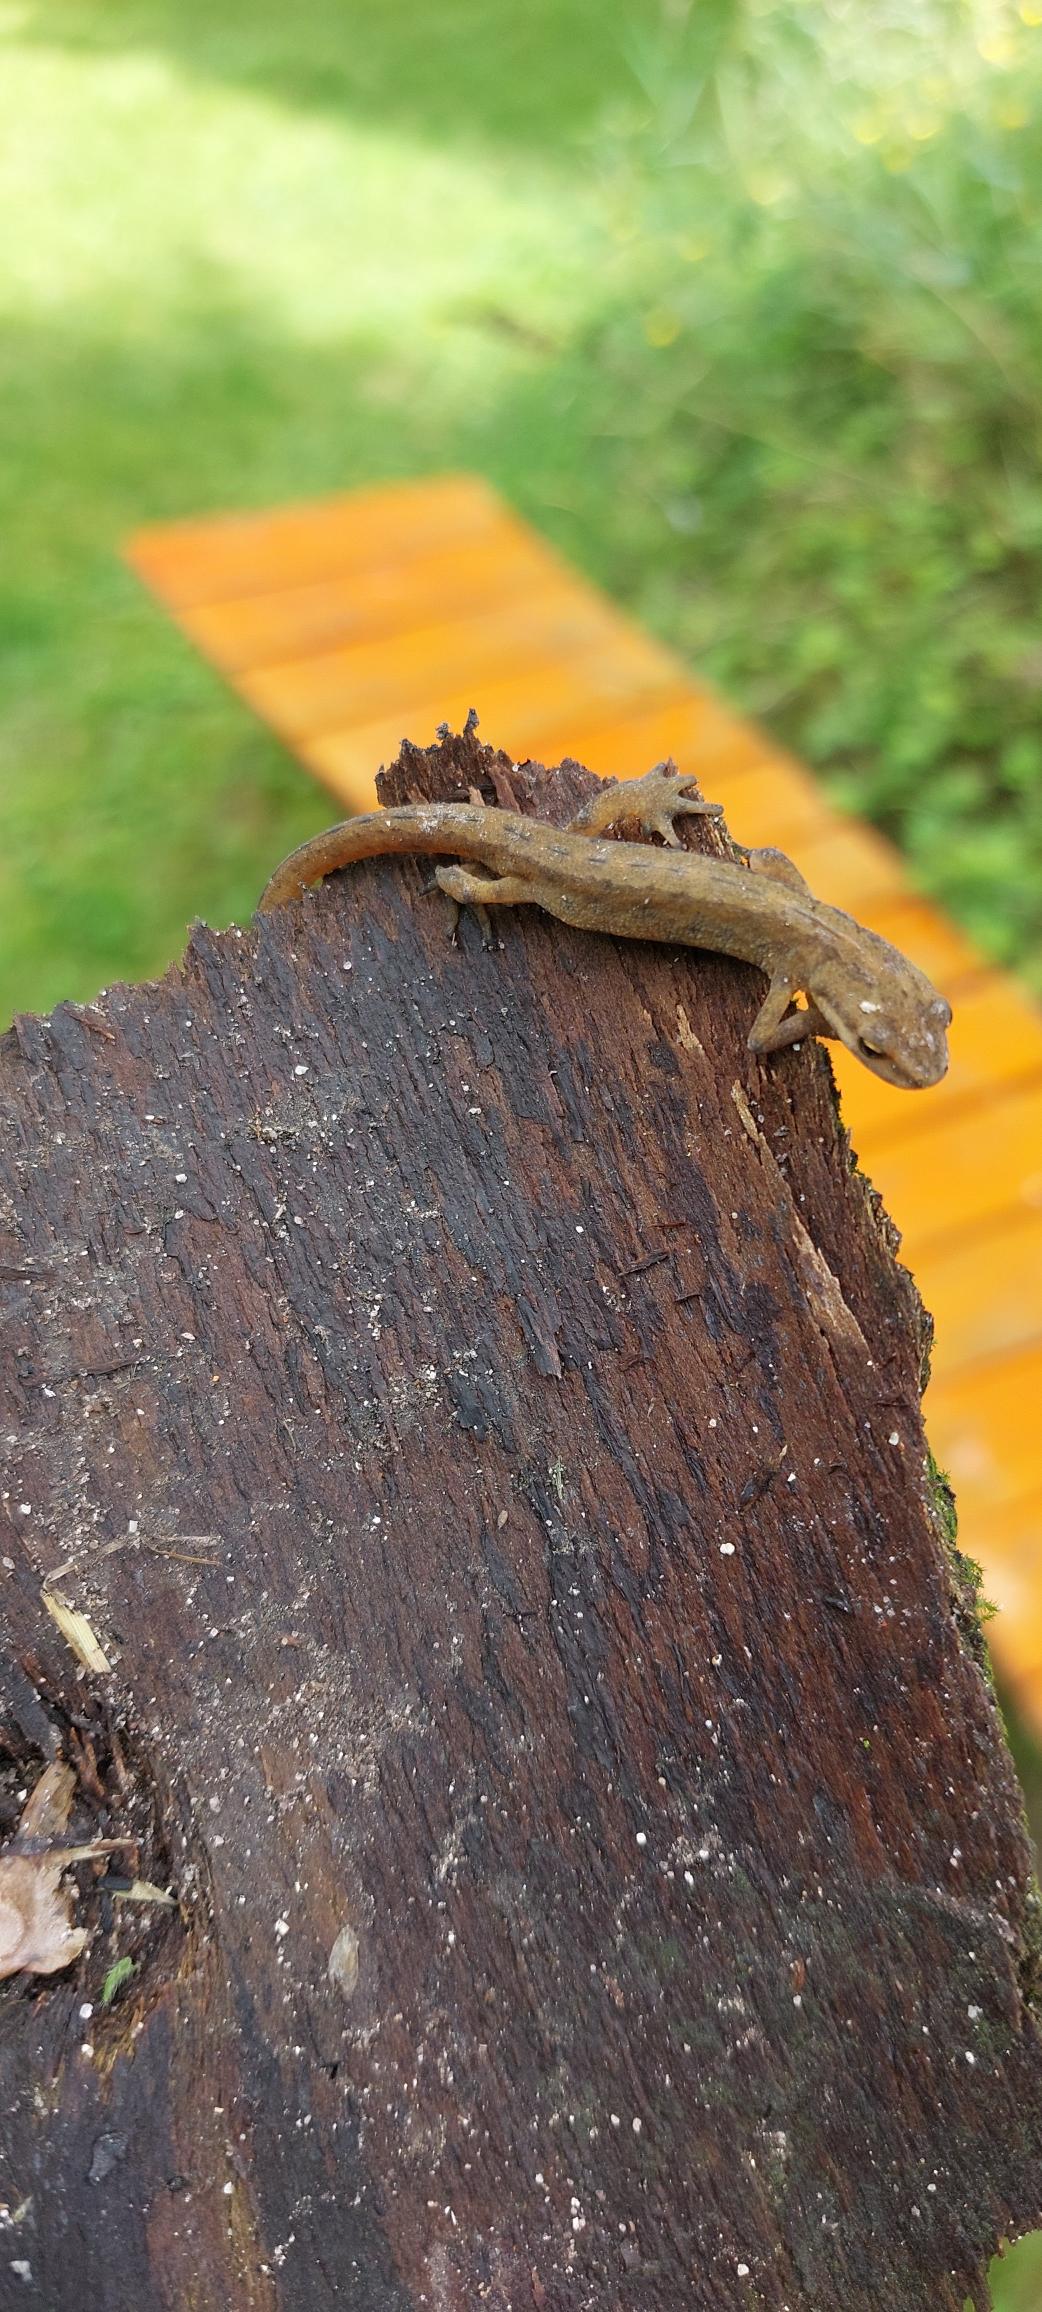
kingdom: Animalia
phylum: Chordata
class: Amphibia
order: Caudata
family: Salamandridae
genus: Lissotriton
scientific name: Lissotriton vulgaris
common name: Lille vandsalamander
